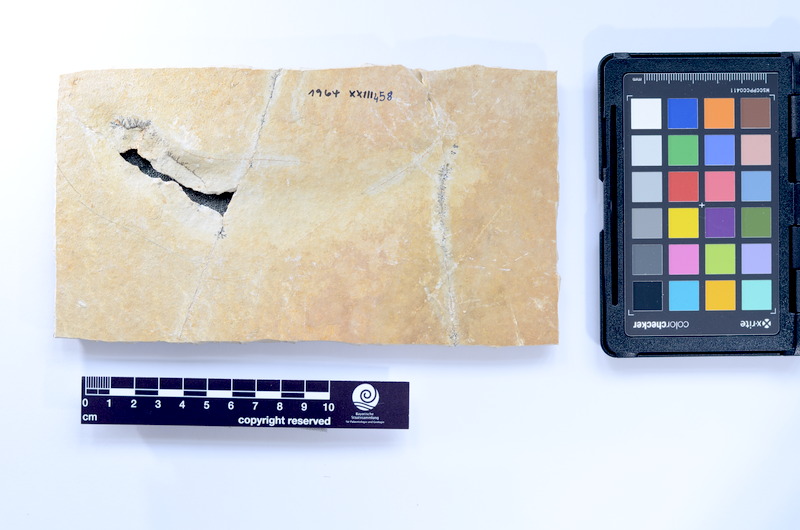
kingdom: Animalia
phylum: Chordata
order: Elopiformes
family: Anaethalionidae
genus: Anaethalion
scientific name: Anaethalion knorri
